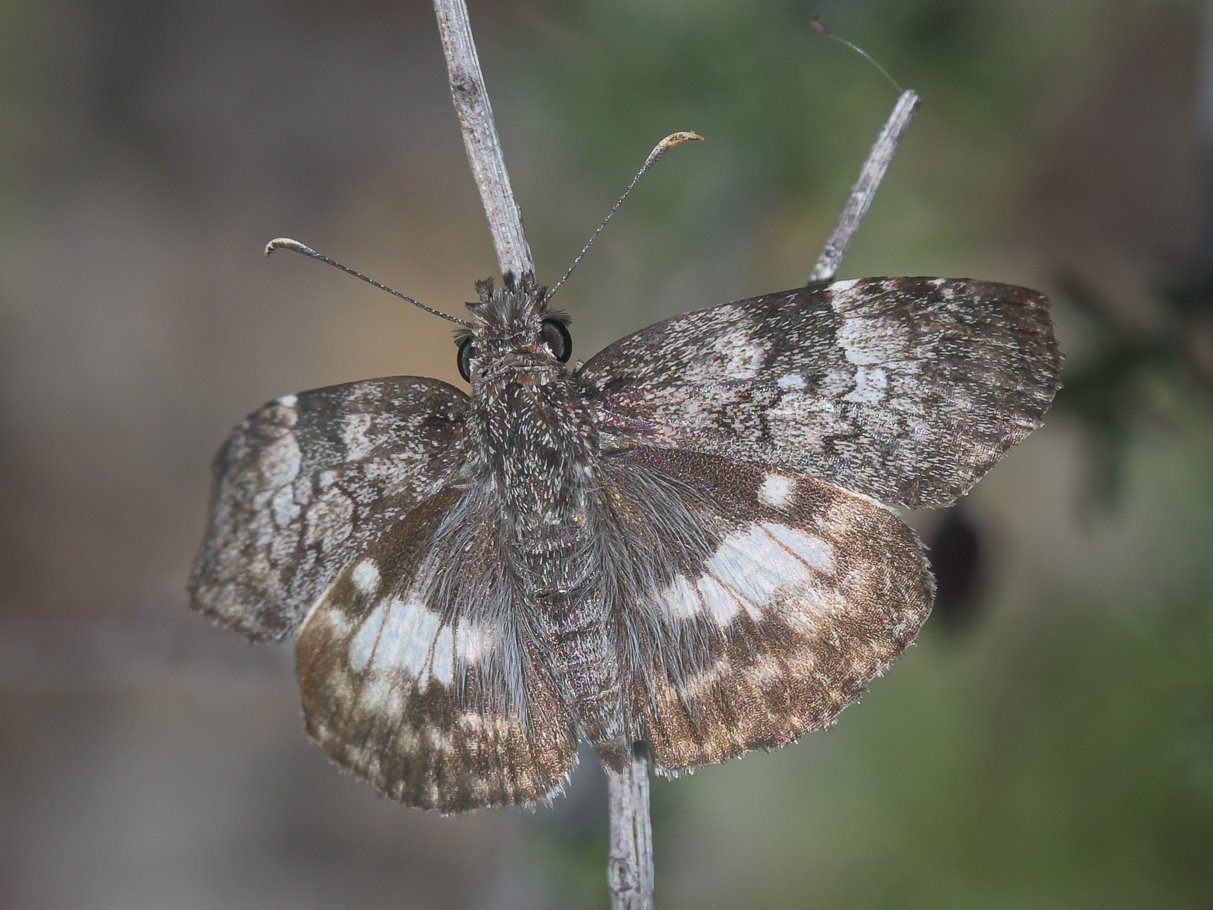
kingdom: Animalia
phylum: Arthropoda
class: Insecta
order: Lepidoptera
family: Hesperiidae
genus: Chiomara
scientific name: Chiomara asychis
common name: White-patched Skipper
